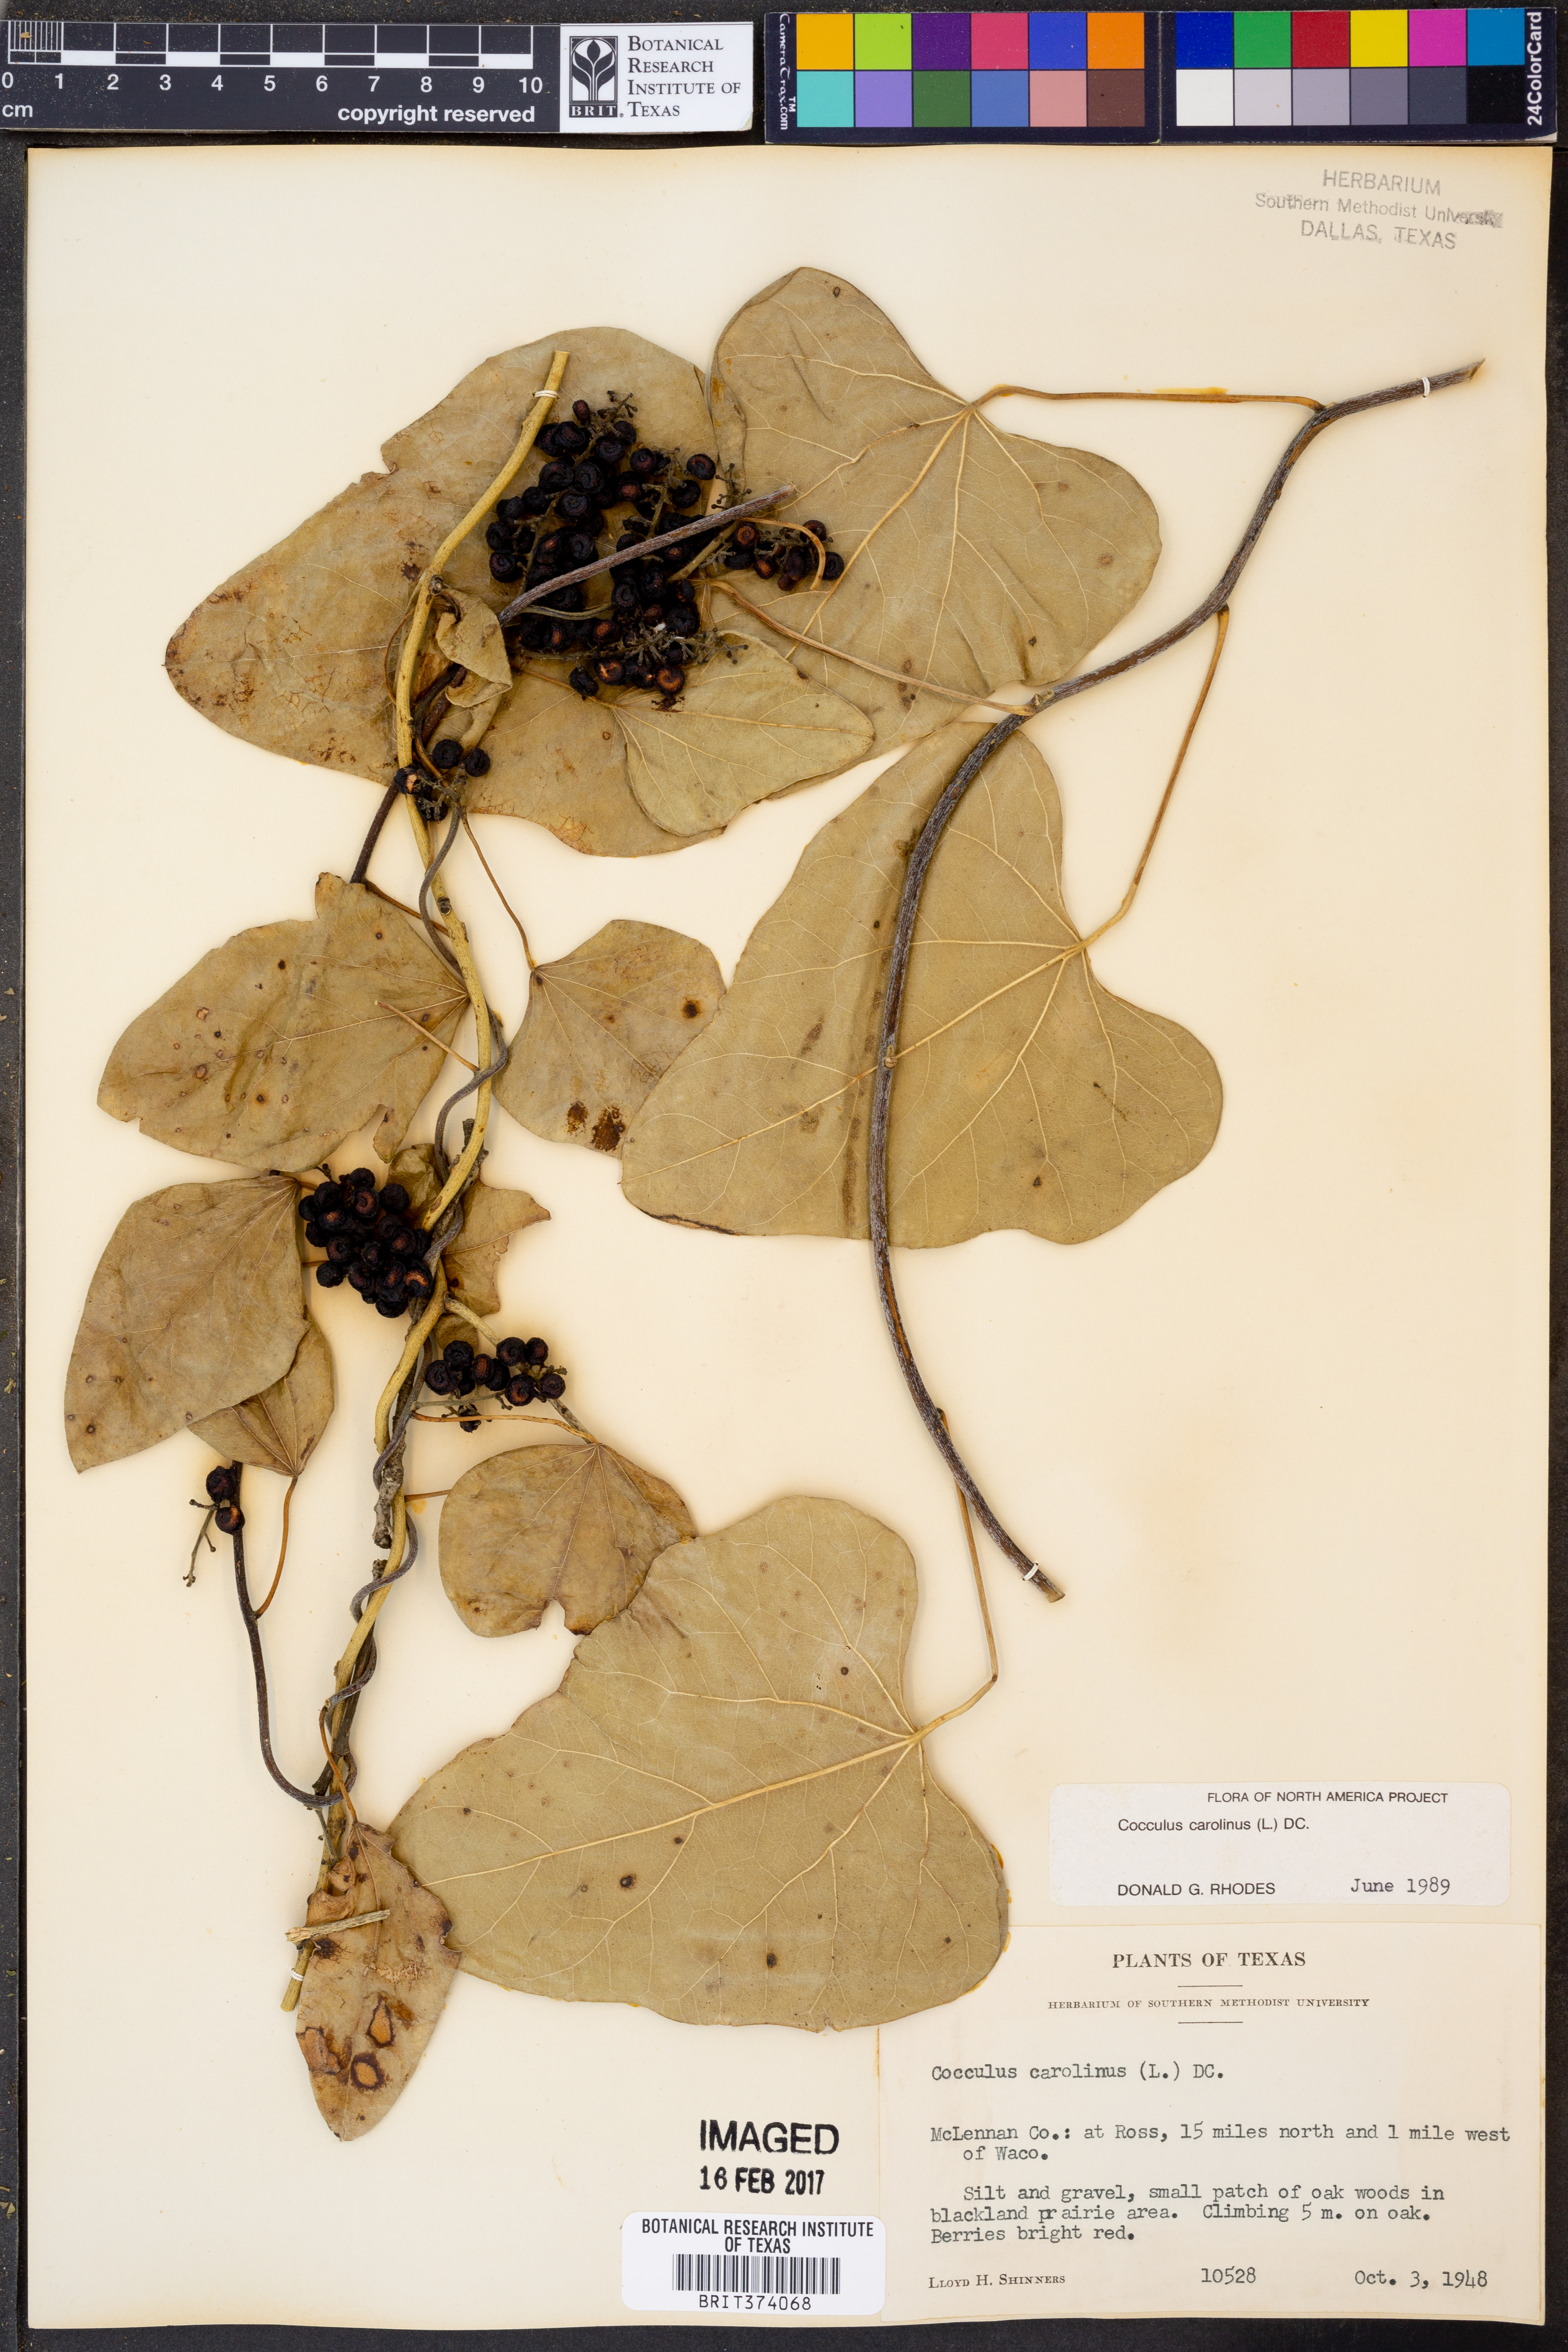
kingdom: Plantae
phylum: Tracheophyta
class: Magnoliopsida
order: Ranunculales
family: Menispermaceae
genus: Cocculus
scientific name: Cocculus carolinus
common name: Carolina moonseed
